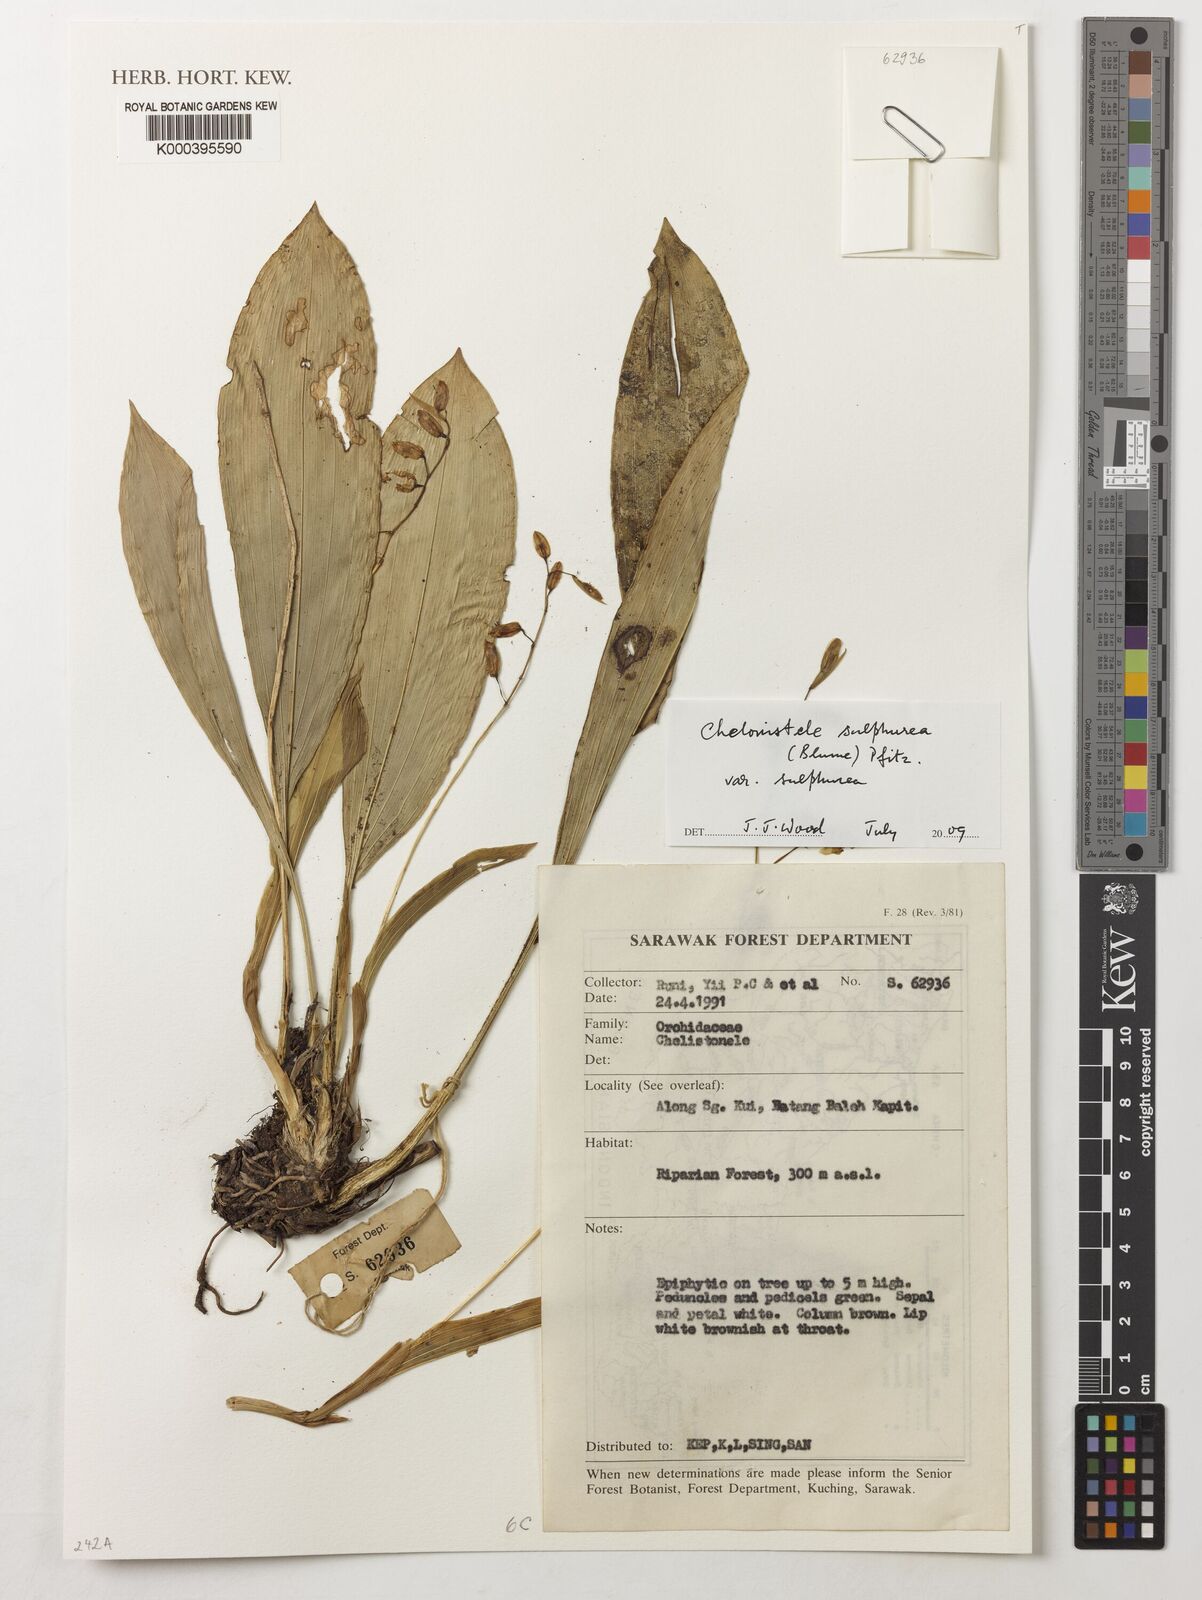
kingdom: Plantae
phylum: Tracheophyta
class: Liliopsida
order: Asparagales
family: Orchidaceae
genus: Coelogyne
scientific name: Coelogyne sulphurea
